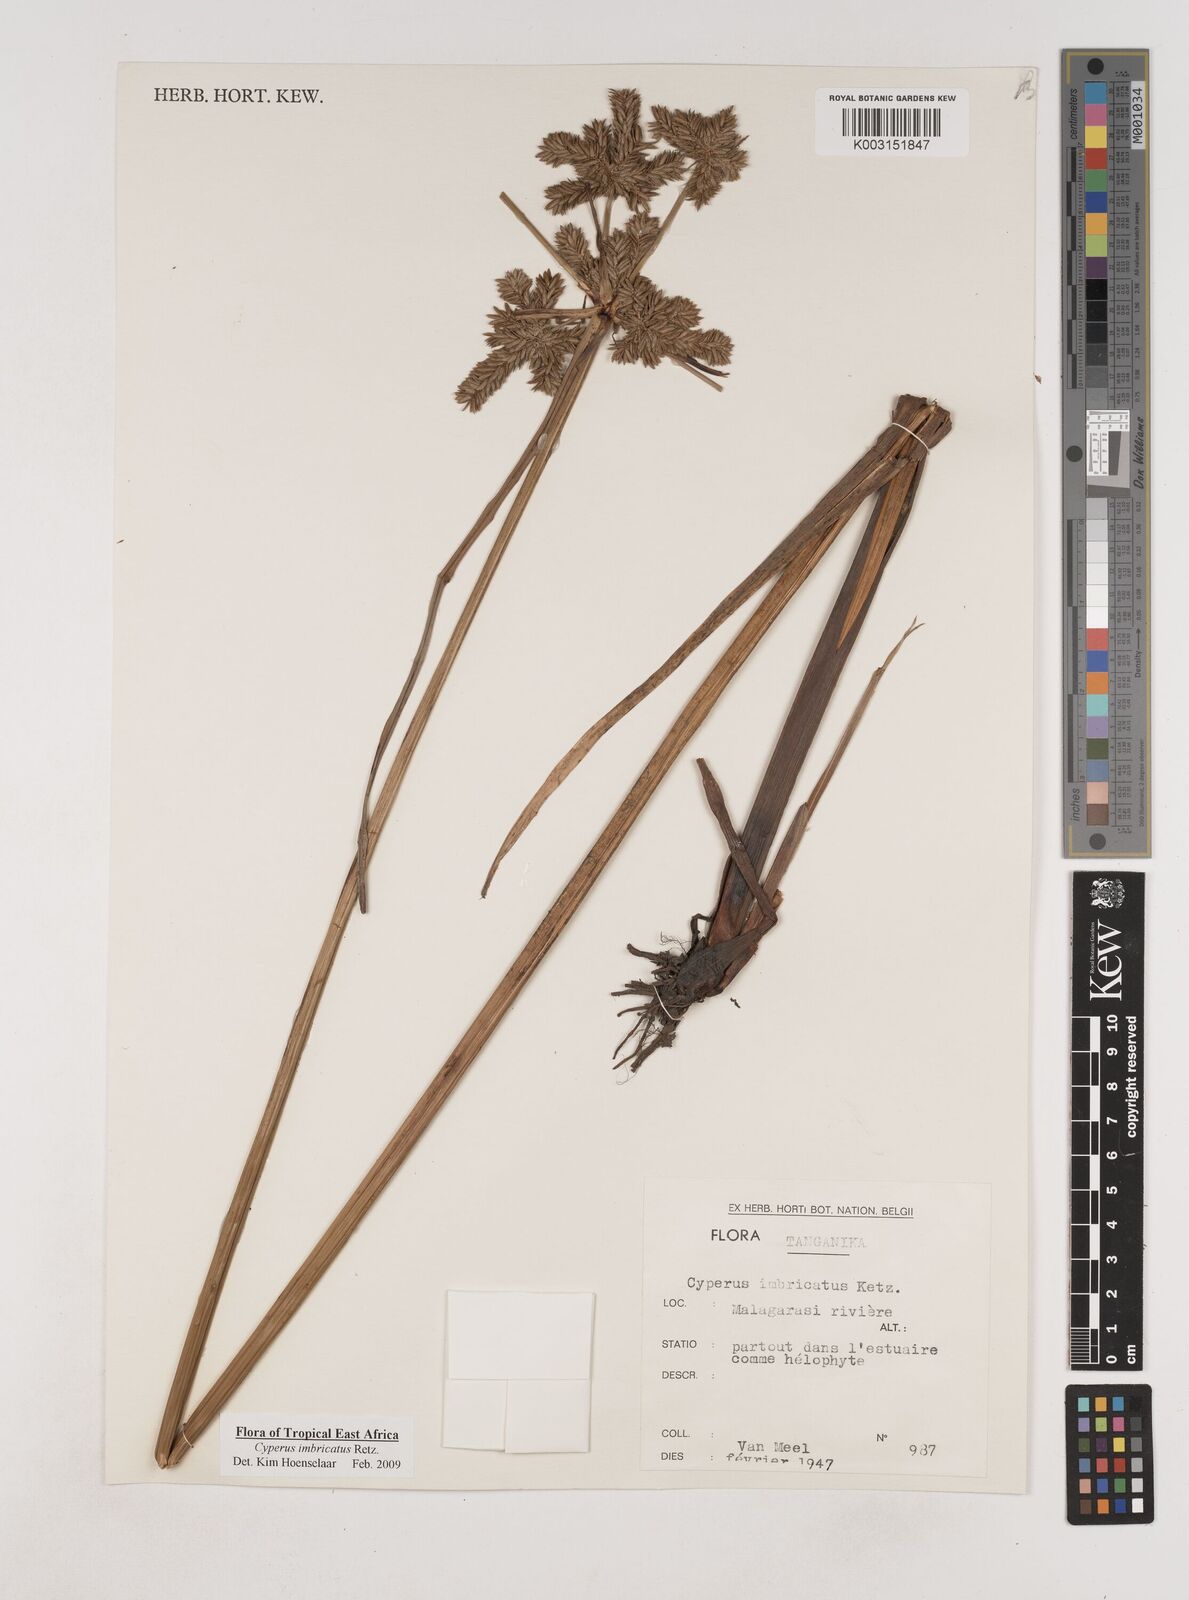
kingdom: Plantae
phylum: Tracheophyta
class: Liliopsida
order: Poales
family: Cyperaceae
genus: Cyperus
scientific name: Cyperus imbricatus
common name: Shingle flatsedge
